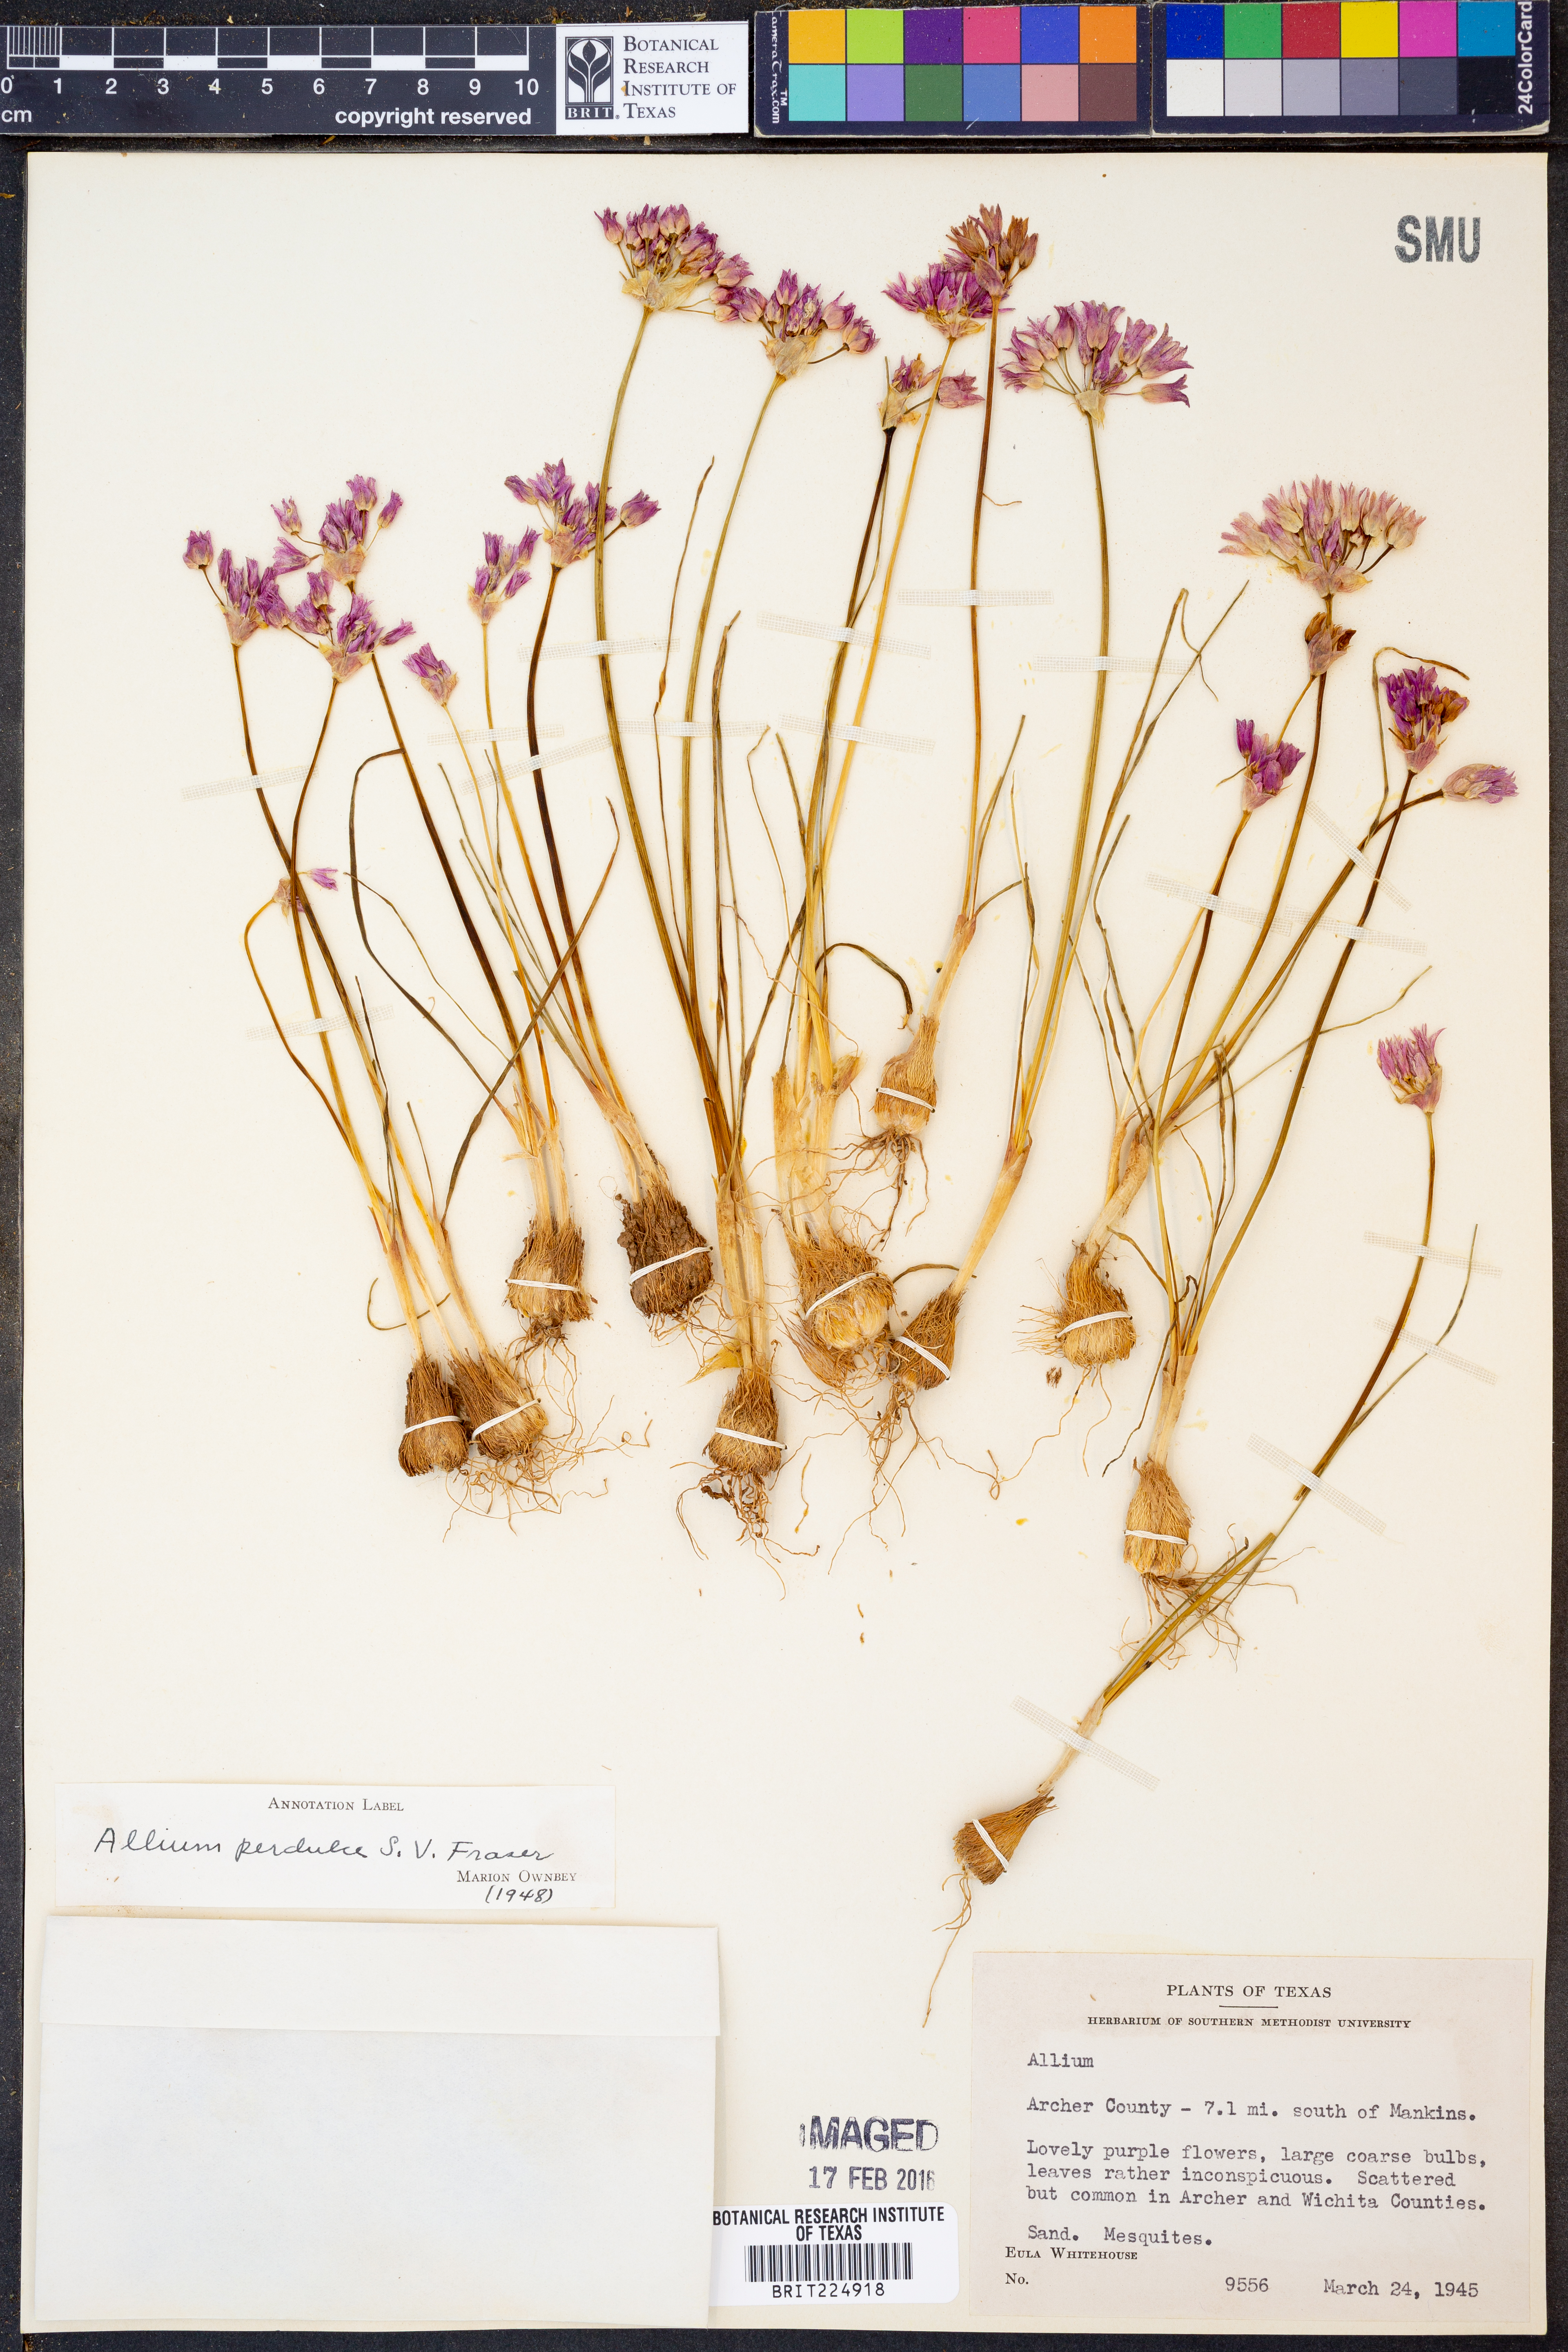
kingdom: Plantae
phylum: Tracheophyta
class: Liliopsida
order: Asparagales
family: Amaryllidaceae
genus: Allium
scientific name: Allium perdulce
